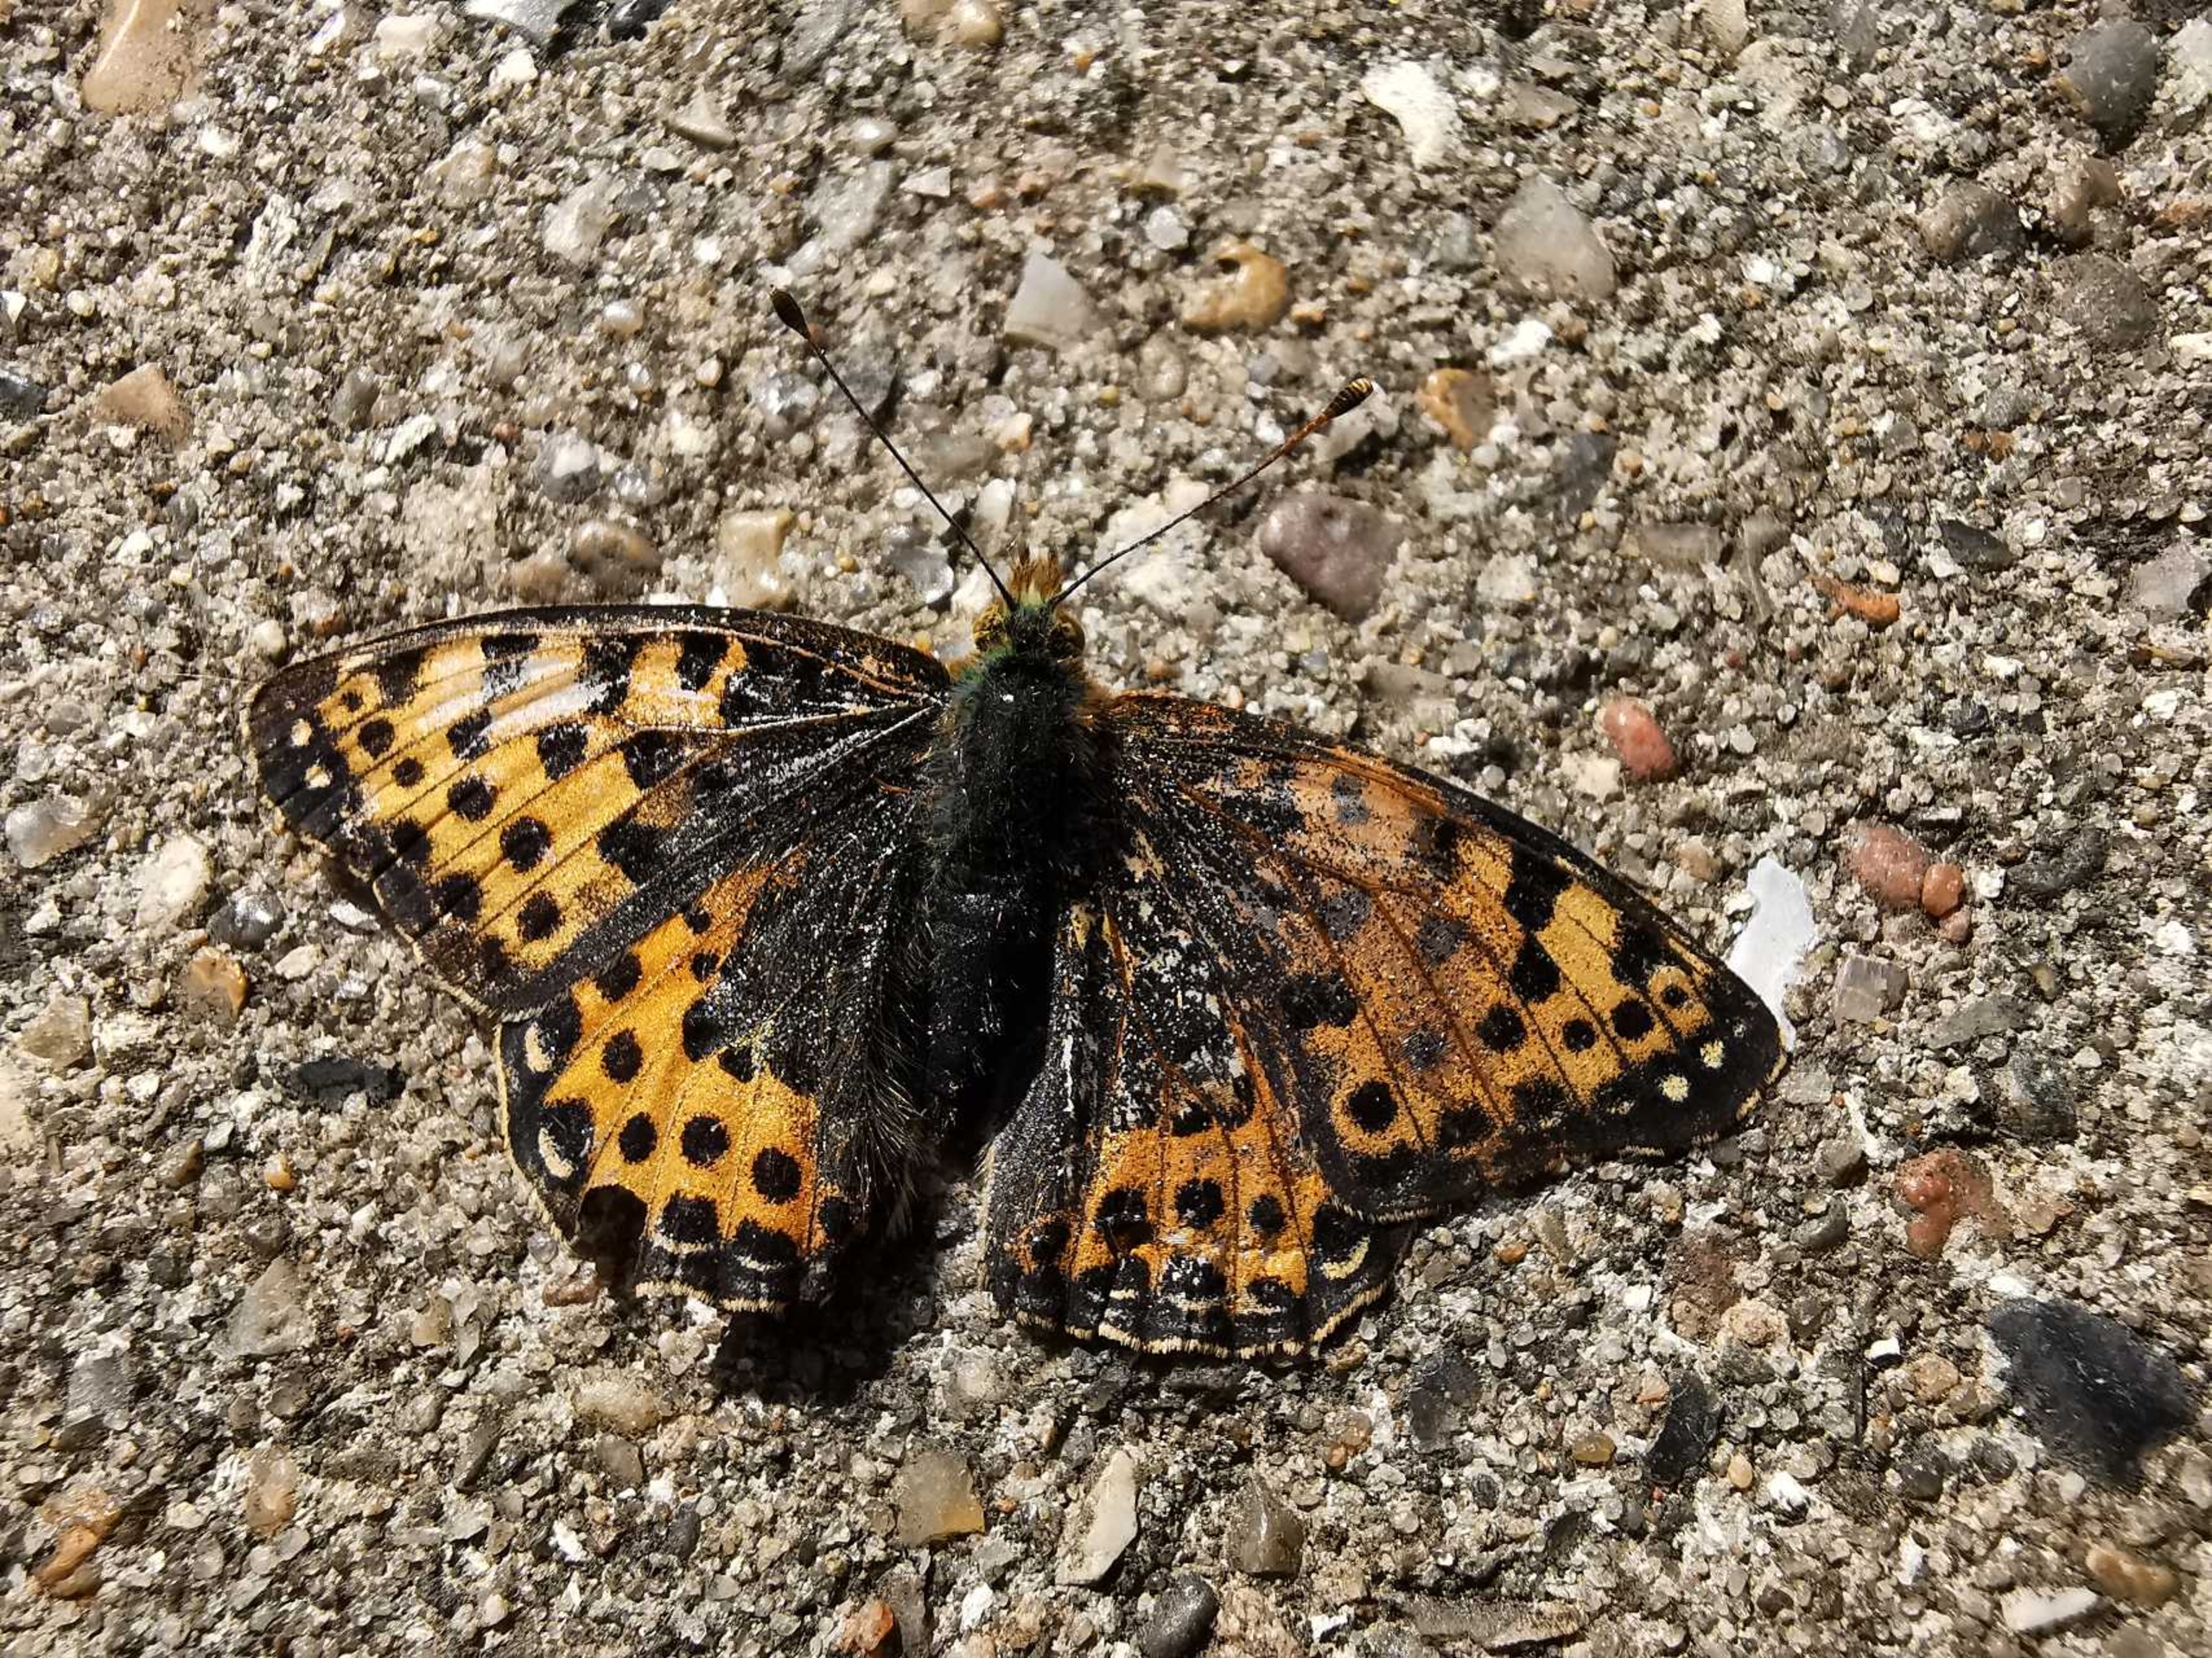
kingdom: Animalia
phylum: Arthropoda
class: Insecta
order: Lepidoptera
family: Nymphalidae
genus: Issoria
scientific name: Issoria lathonia
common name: Storplettet perlemorsommerfugl
